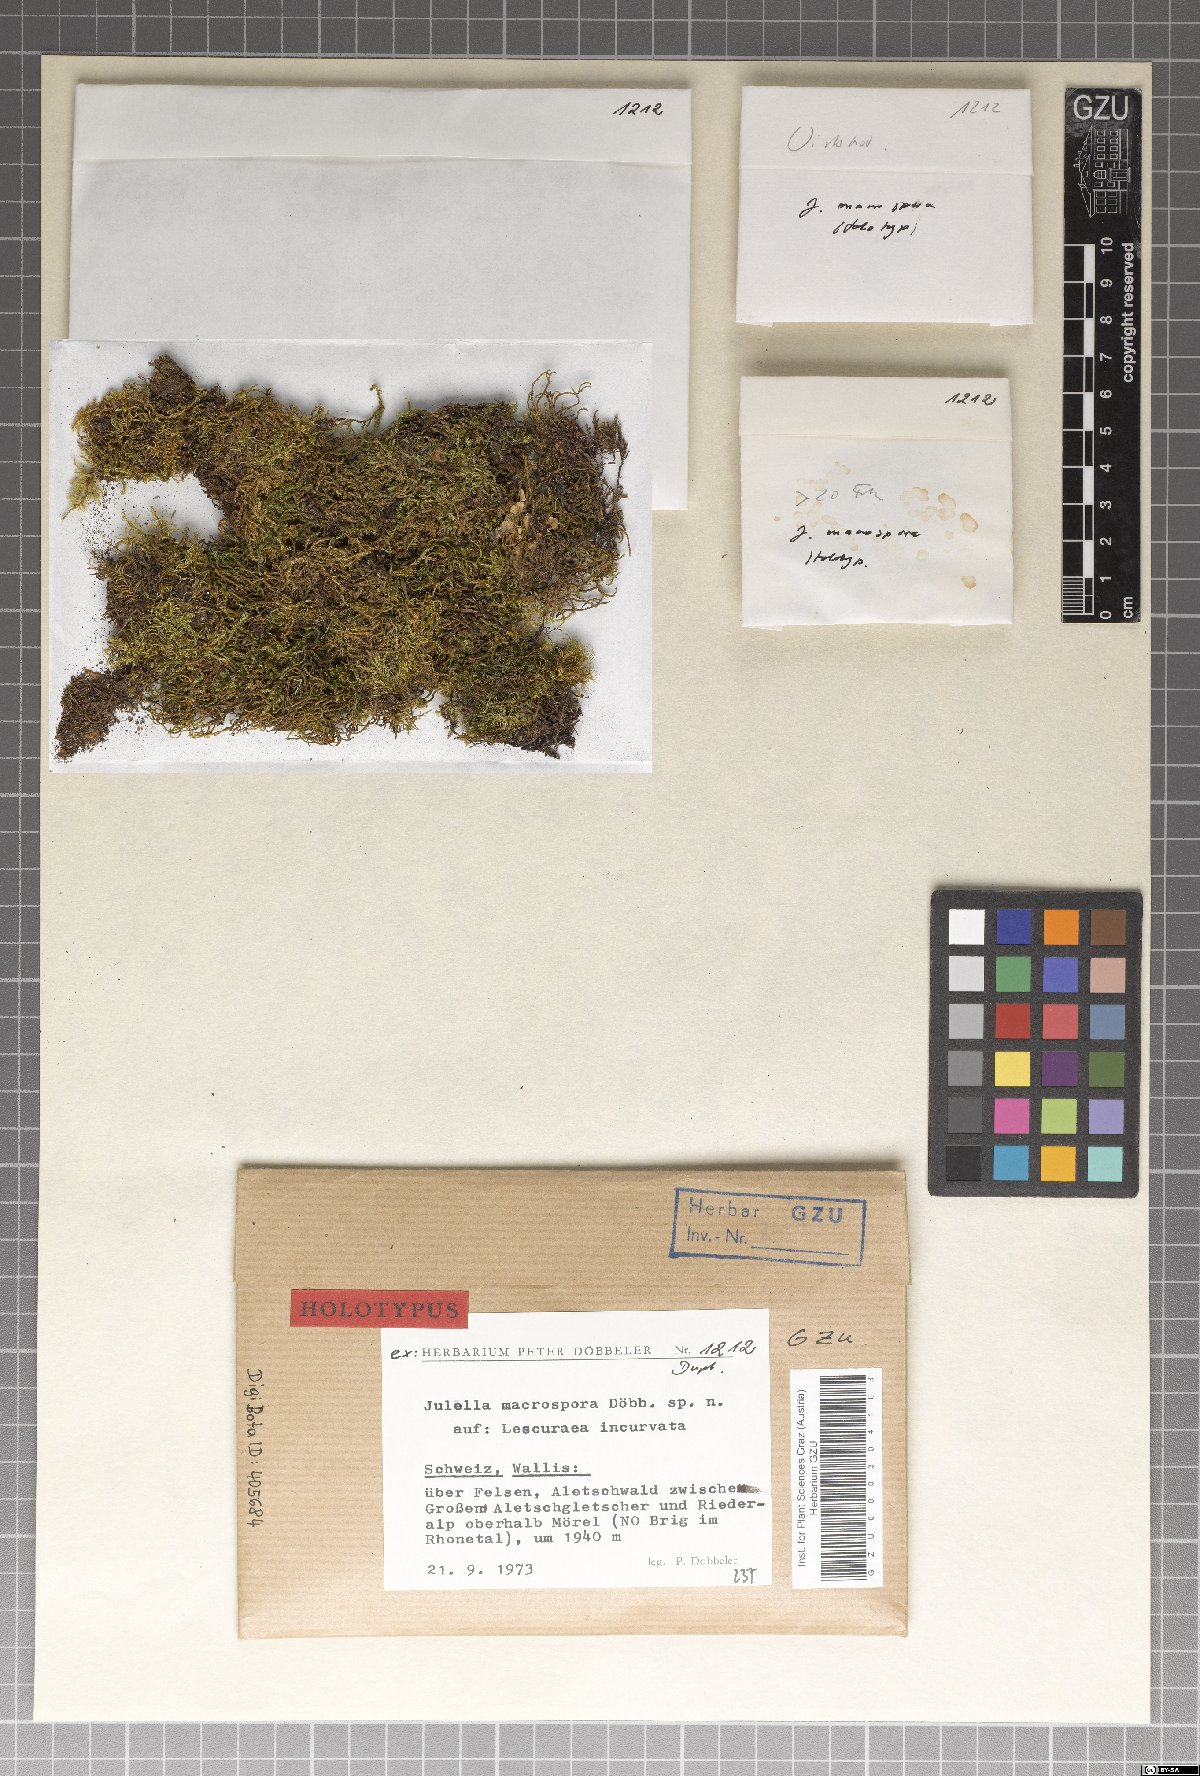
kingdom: Fungi
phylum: Ascomycota
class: Lecanoromycetes
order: Ostropales
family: Thelenellaceae
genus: Julella
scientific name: Julella macrospora
